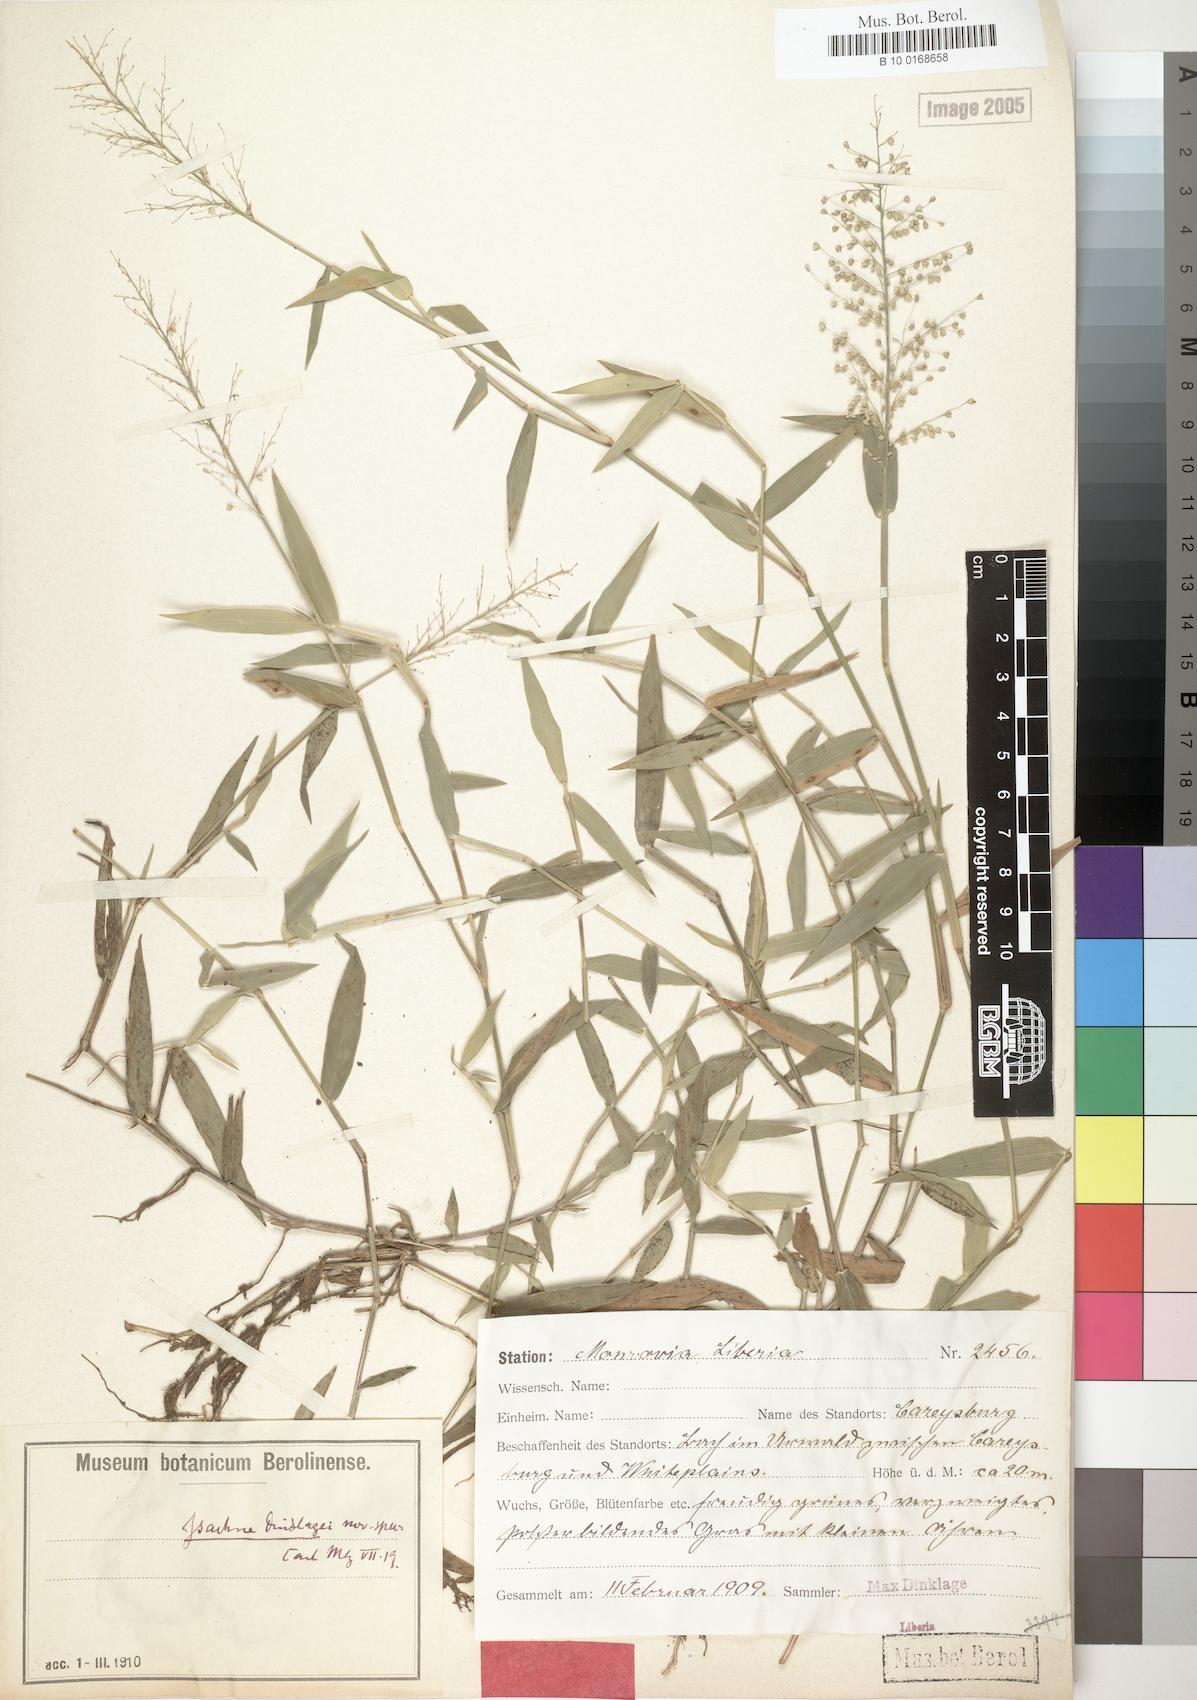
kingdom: Plantae
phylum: Tracheophyta
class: Liliopsida
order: Poales
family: Poaceae
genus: Isachne
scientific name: Isachne
